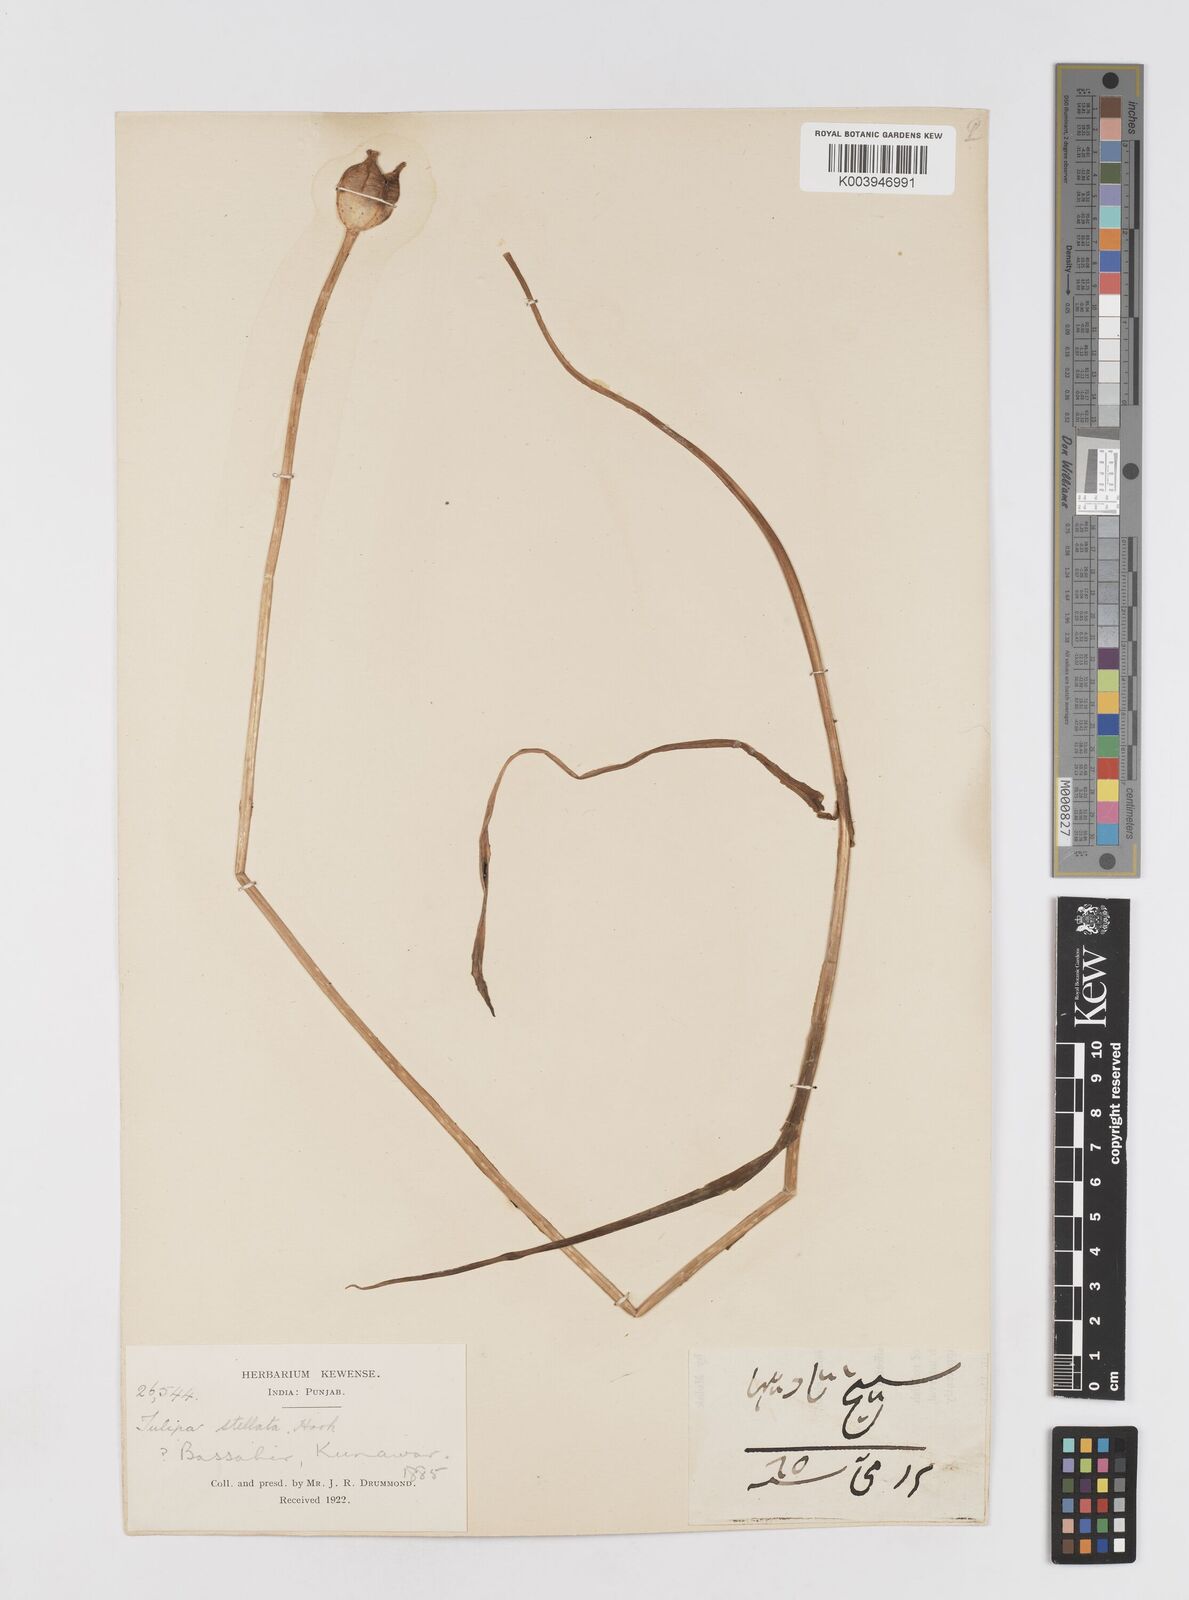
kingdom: Plantae
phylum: Tracheophyta
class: Liliopsida
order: Liliales
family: Liliaceae
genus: Tulipa
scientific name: Tulipa clusiana
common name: Lady tulip
